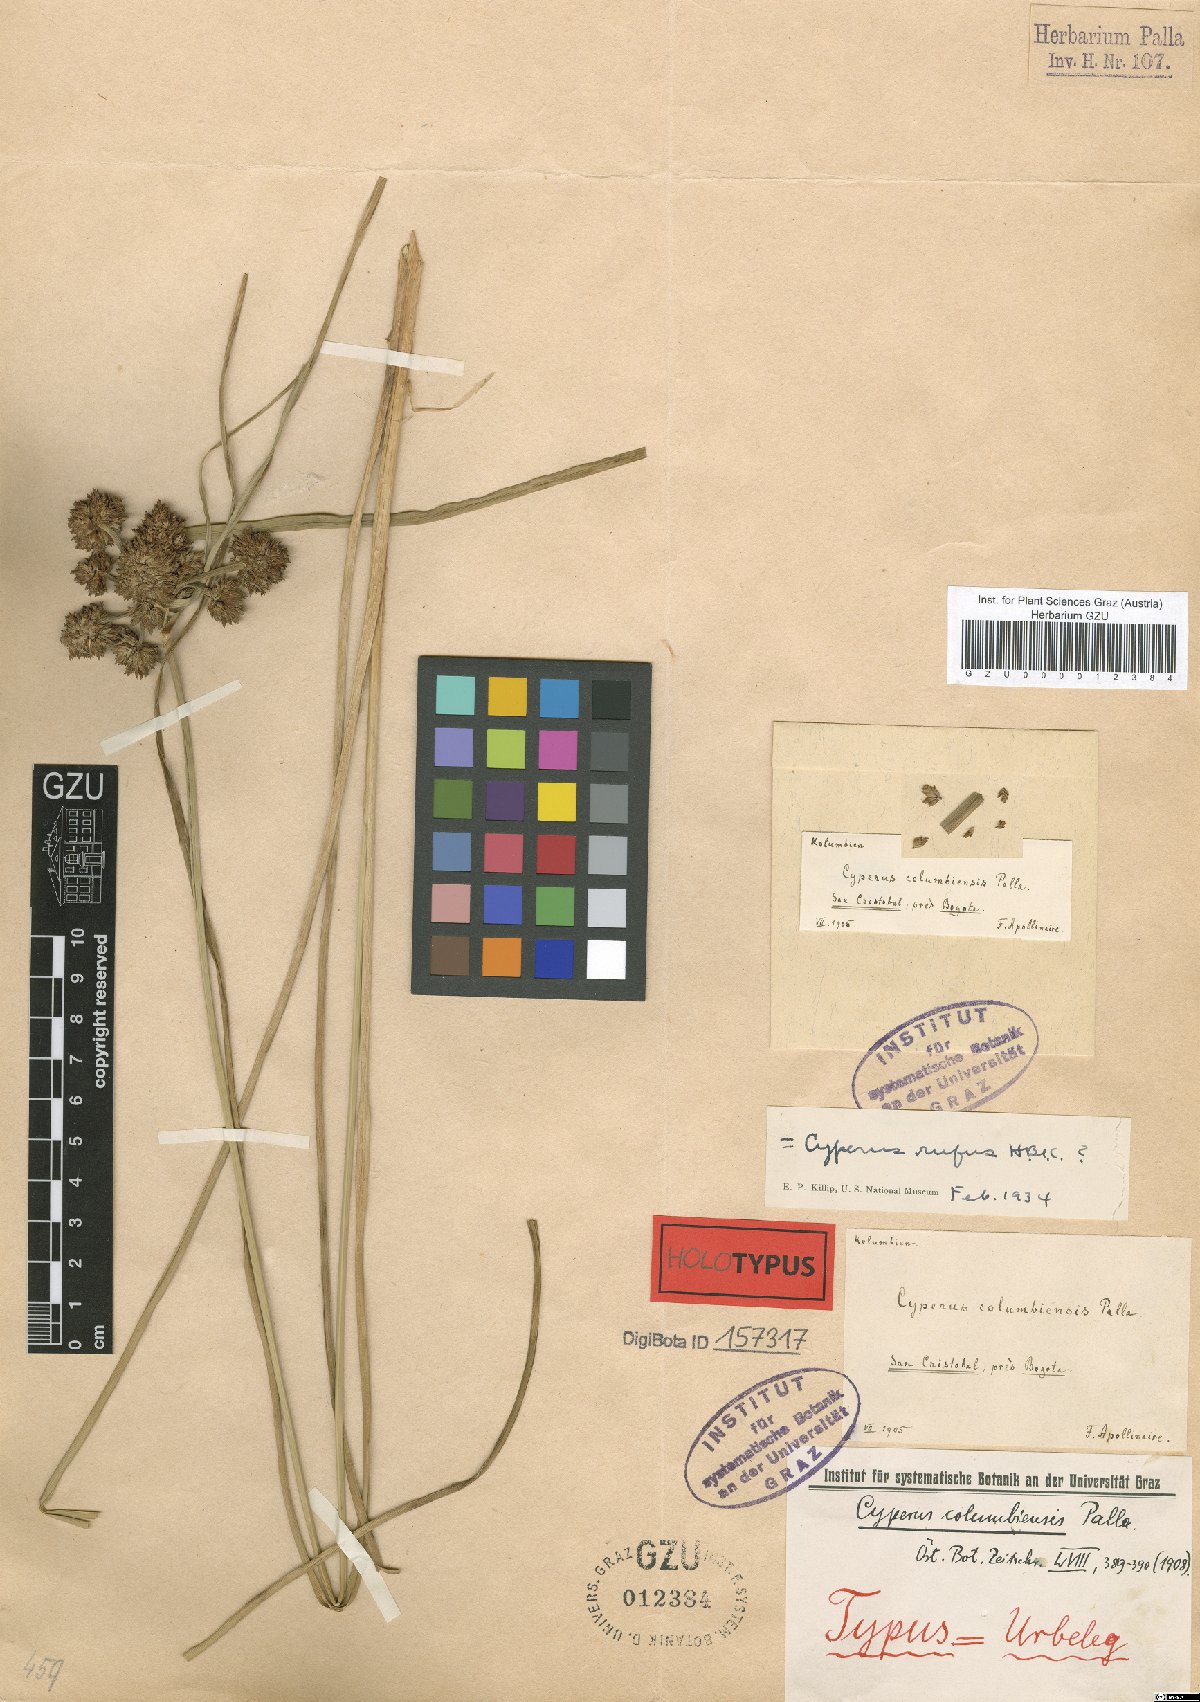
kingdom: Plantae
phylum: Tracheophyta
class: Liliopsida
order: Poales
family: Cyperaceae
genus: Cyperus
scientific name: Cyperus columbiensis
